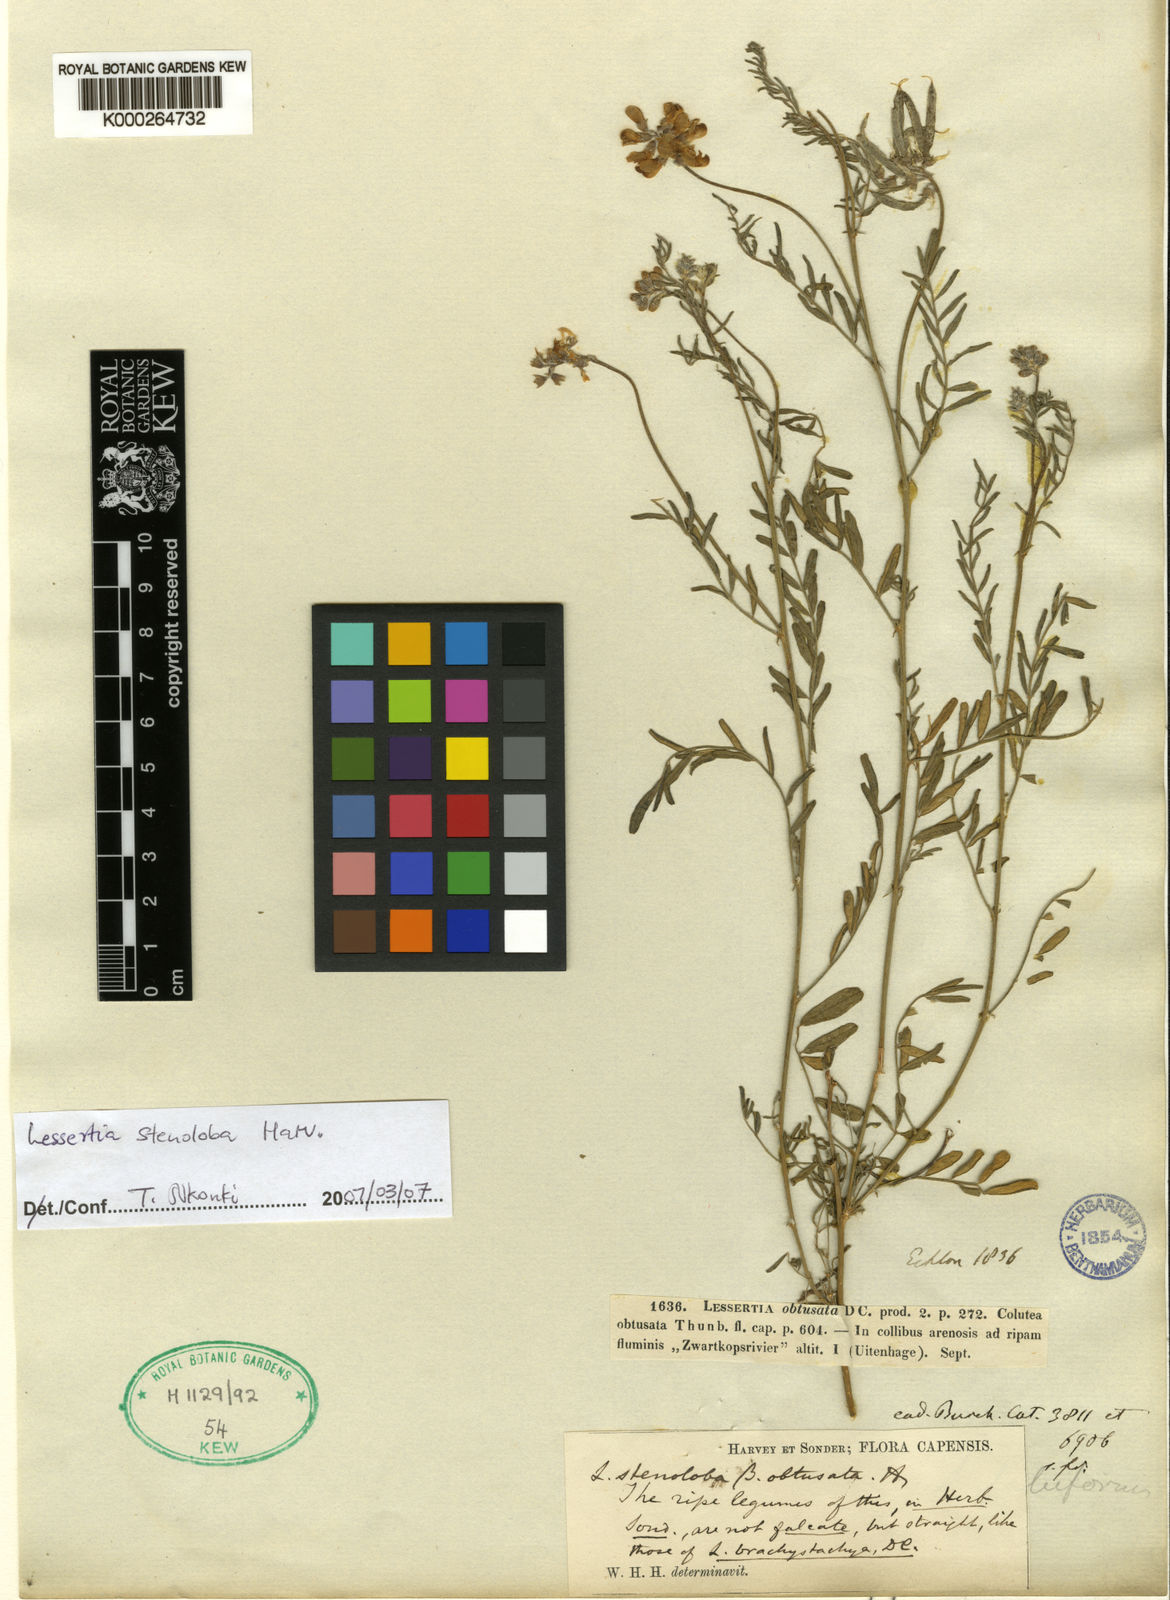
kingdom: Plantae
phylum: Tracheophyta
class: Magnoliopsida
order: Fabales
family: Fabaceae
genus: Lessertia
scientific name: Lessertia obtusata
